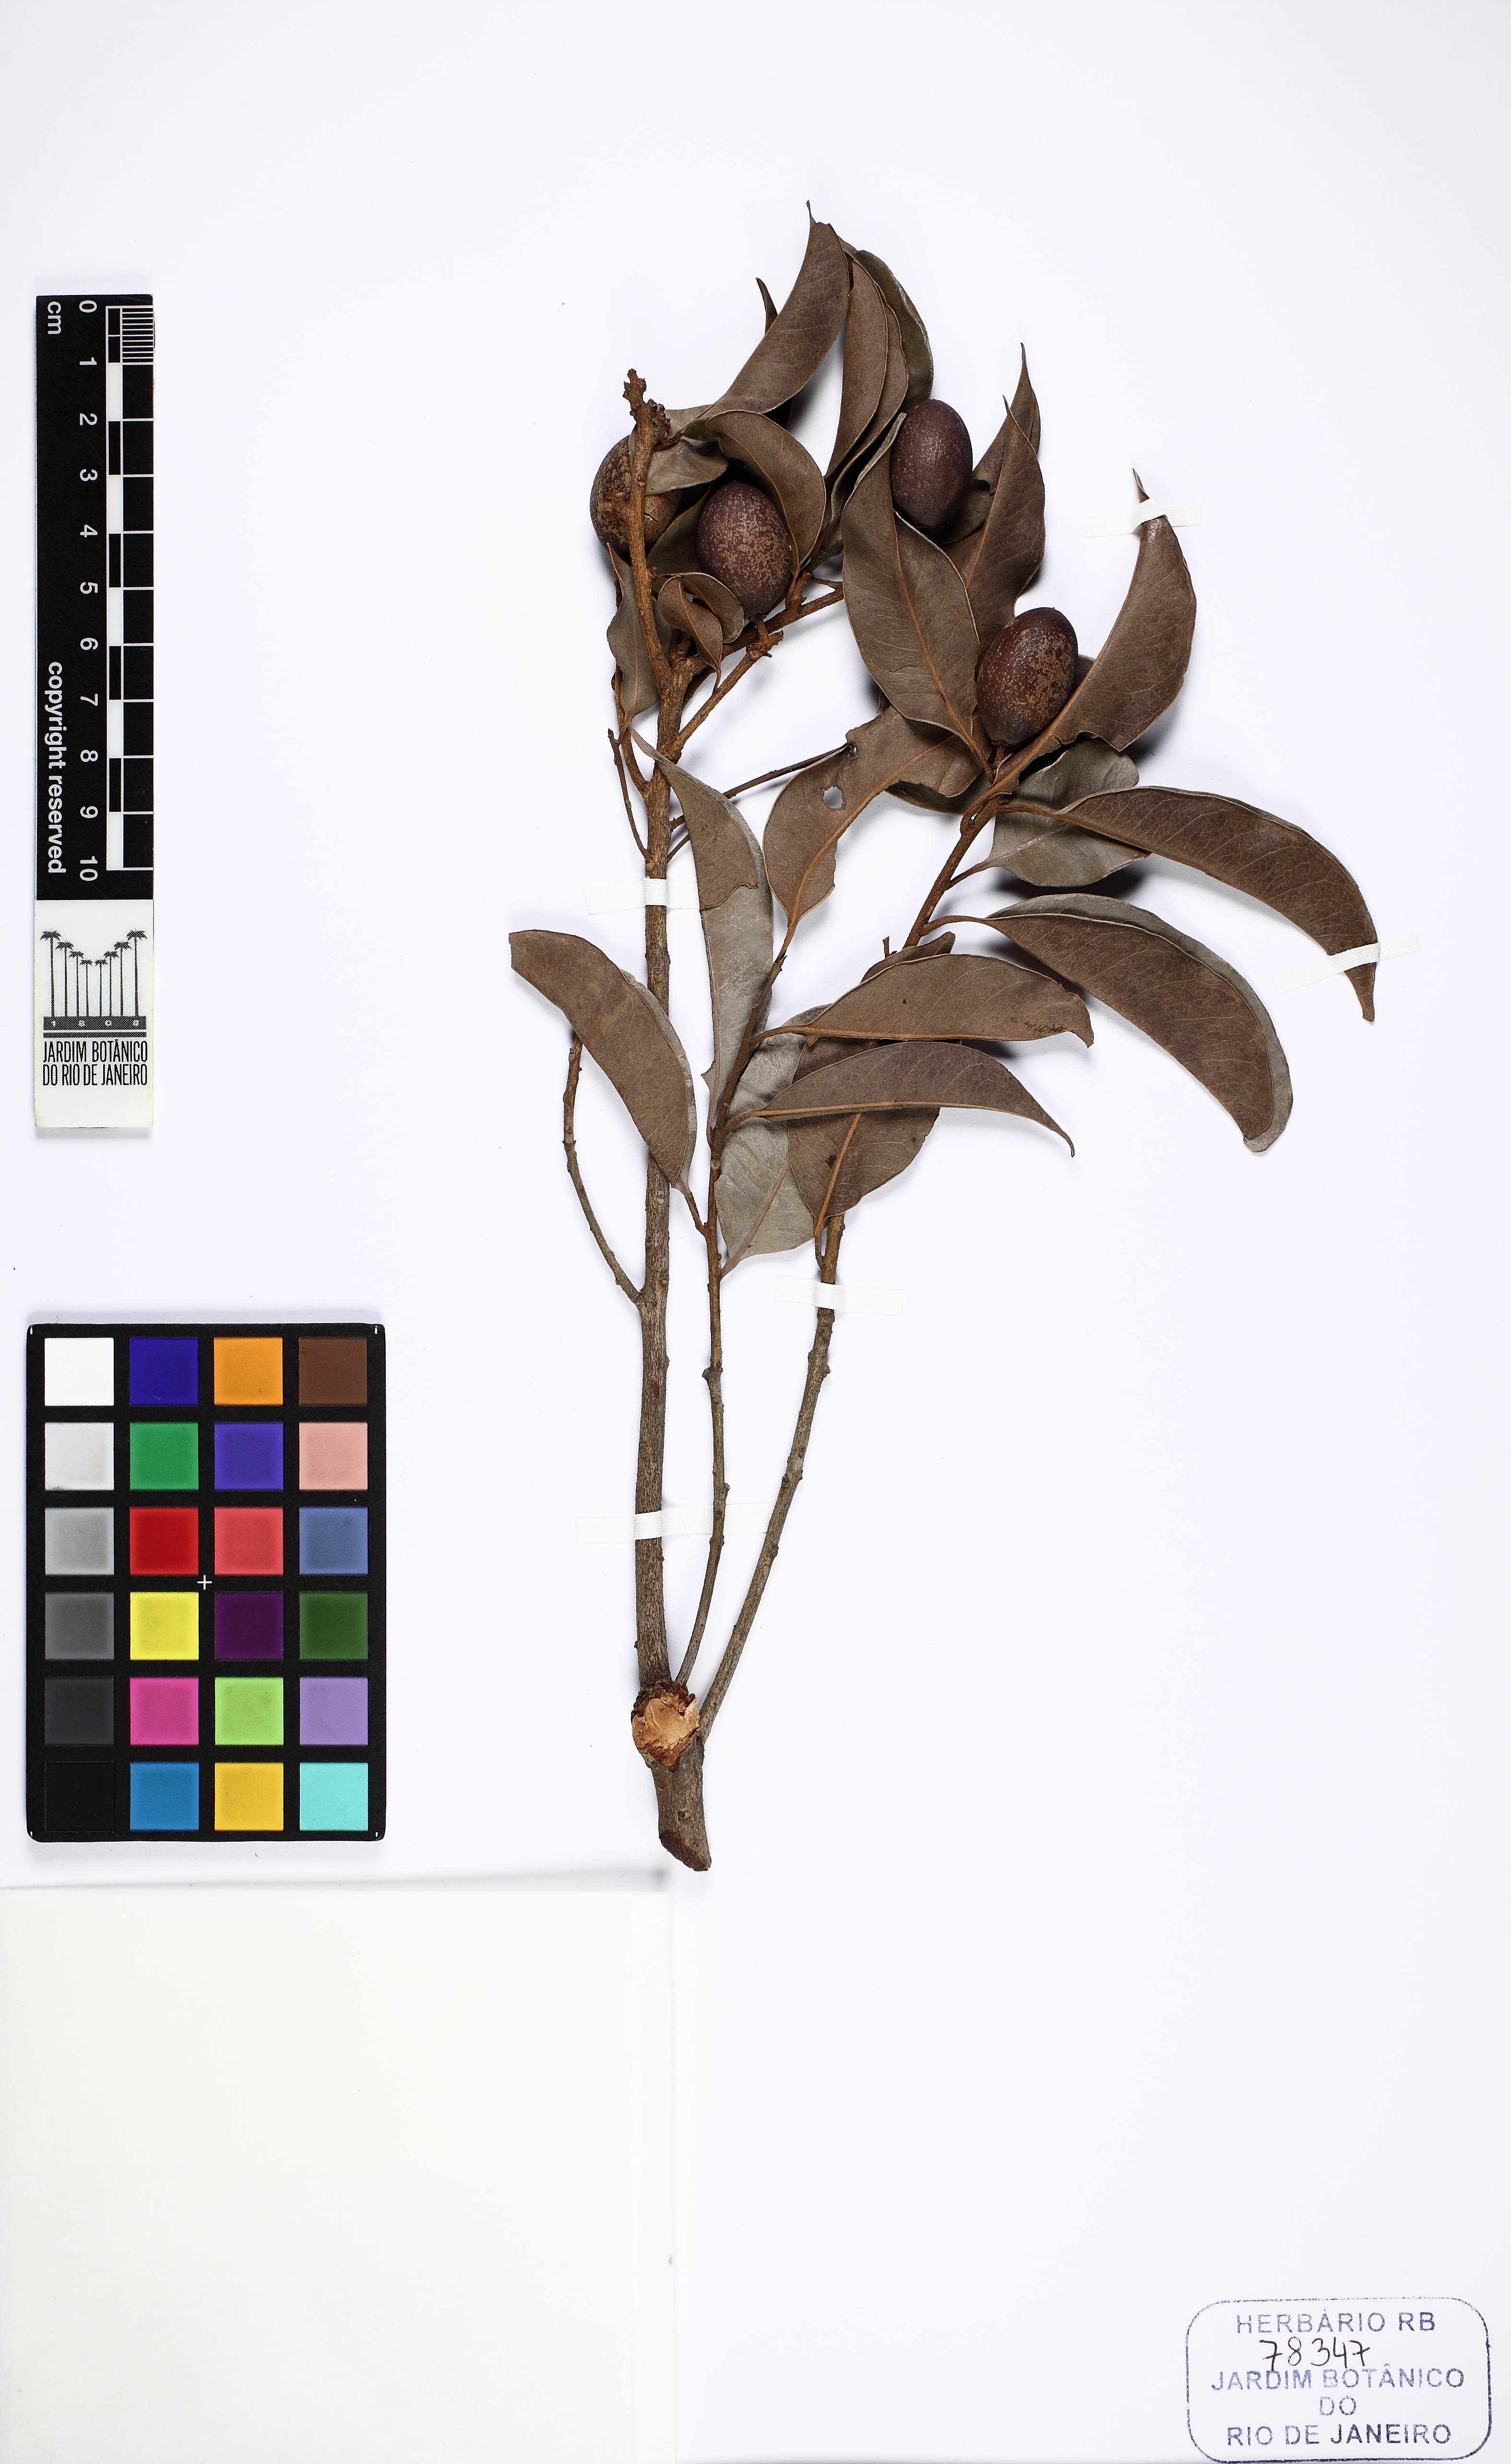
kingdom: Plantae
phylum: Tracheophyta
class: Magnoliopsida
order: Ericales
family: Sapotaceae
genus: Pouteria
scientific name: Pouteria macahensis
